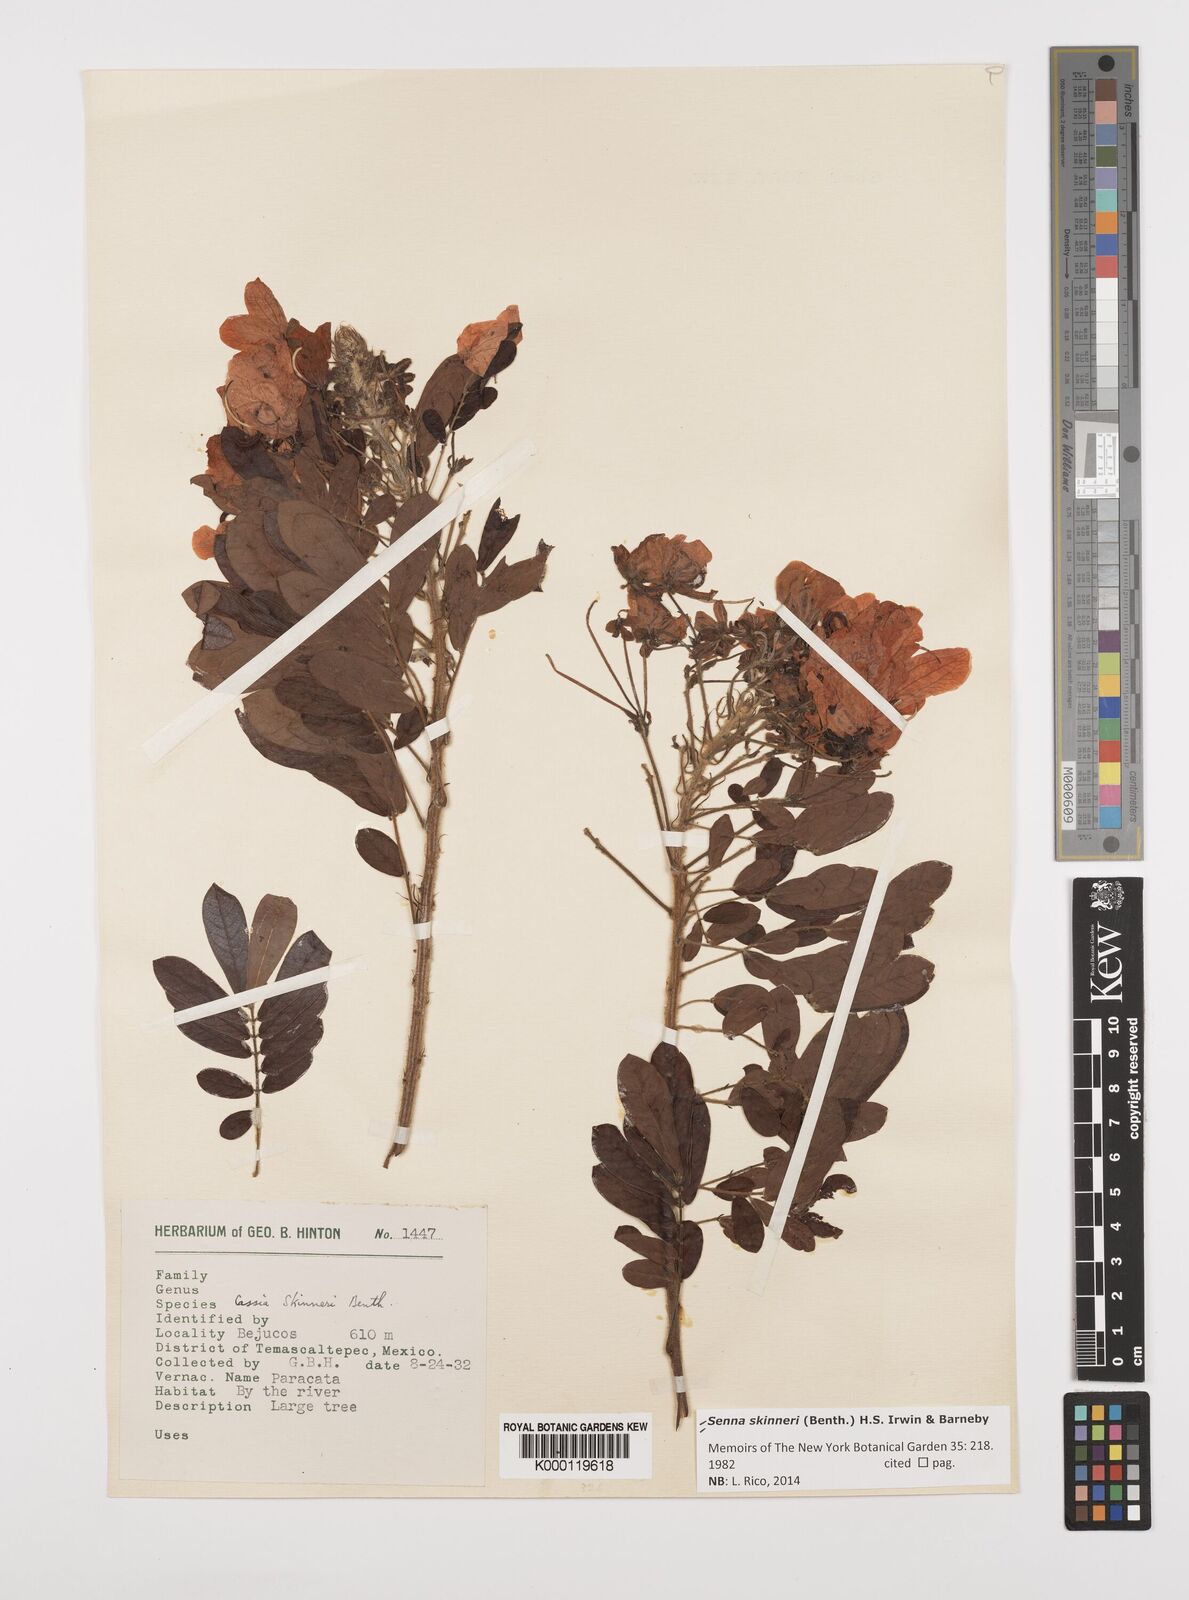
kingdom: Plantae
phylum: Tracheophyta
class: Magnoliopsida
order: Fabales
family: Fabaceae
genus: Senna
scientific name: Senna skinneri
